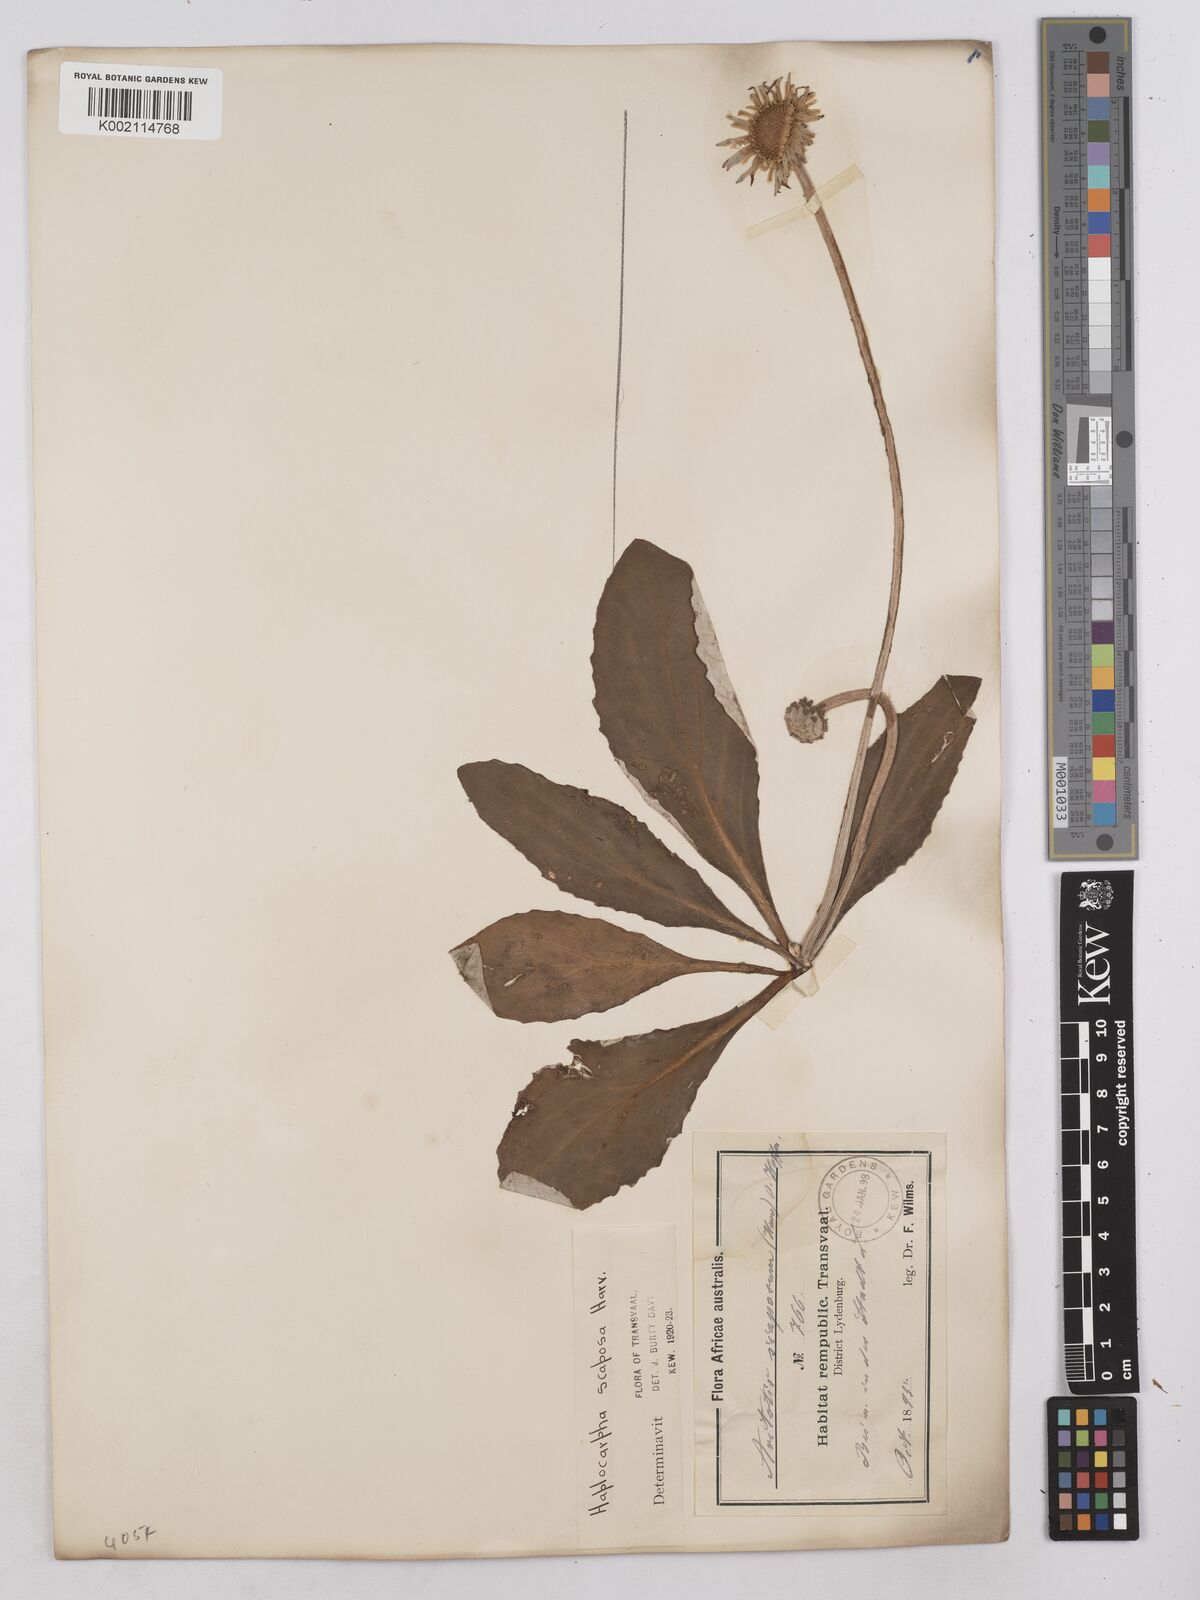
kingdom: Plantae
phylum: Tracheophyta
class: Magnoliopsida
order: Asterales
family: Asteraceae
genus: Haplocarpha
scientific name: Haplocarpha scaposa
